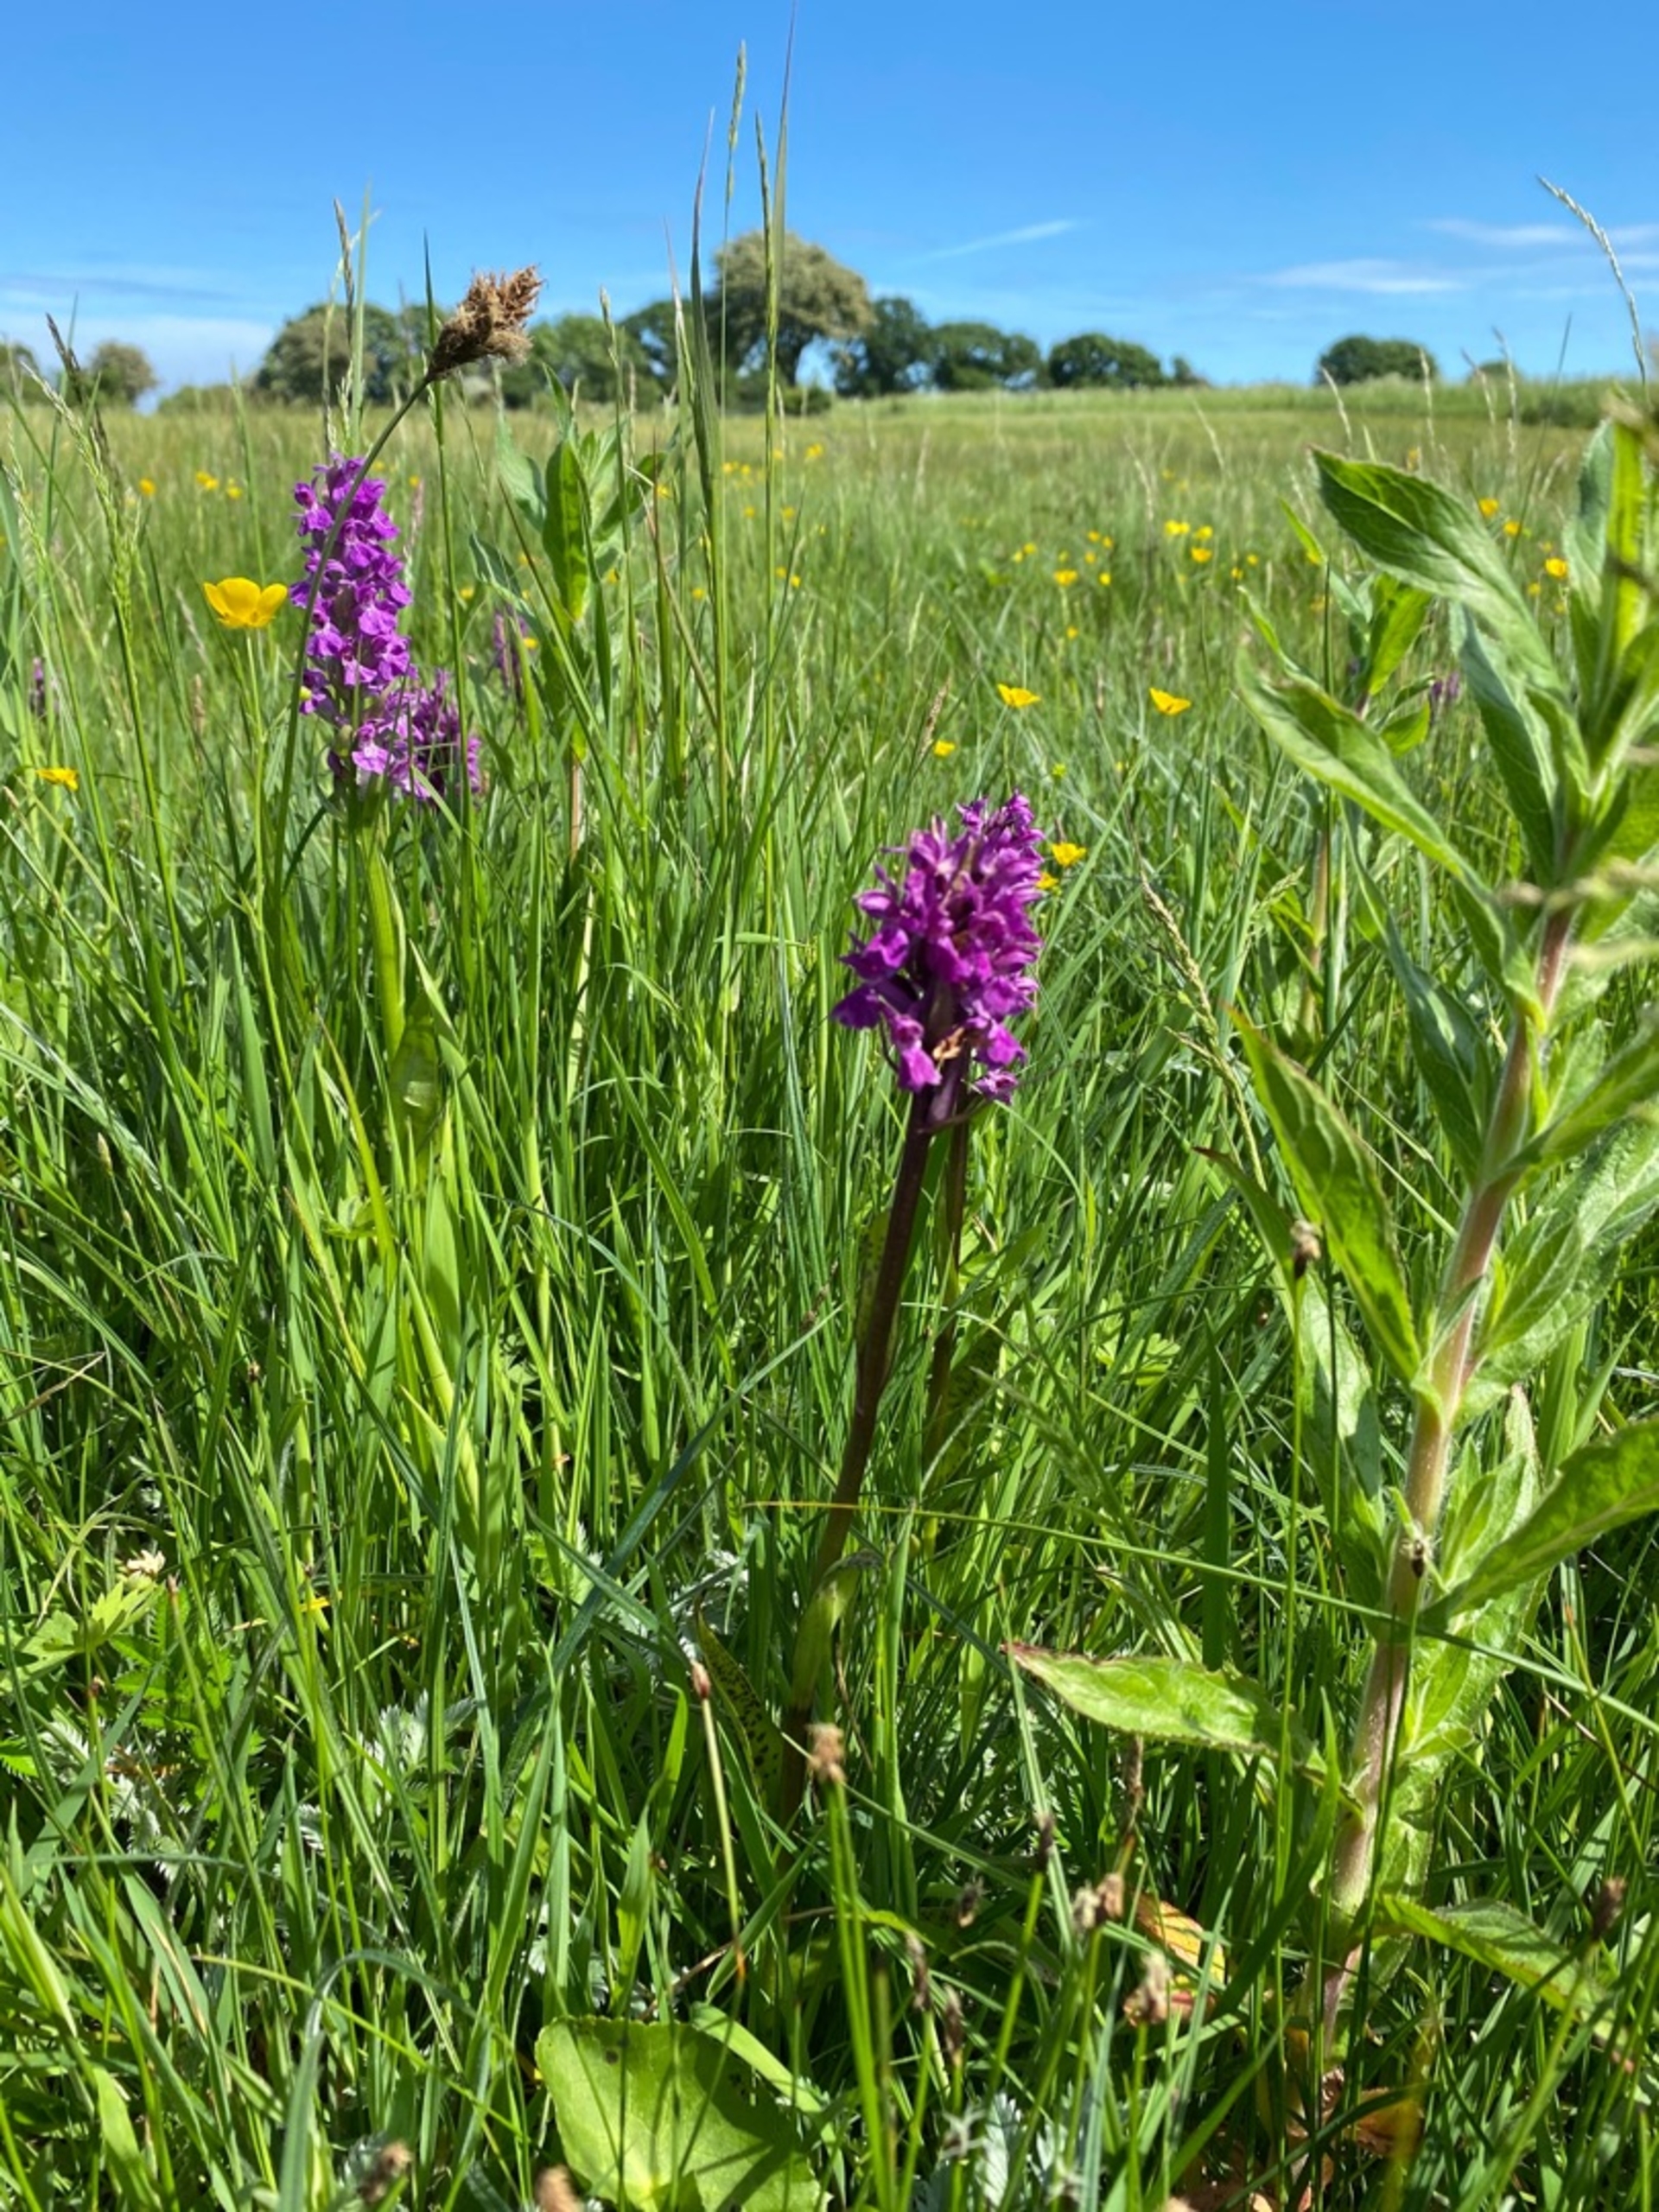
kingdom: Plantae
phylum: Tracheophyta
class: Liliopsida
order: Asparagales
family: Orchidaceae
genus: Dactylorhiza
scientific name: Dactylorhiza majalis
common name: Maj-gøgeurt
